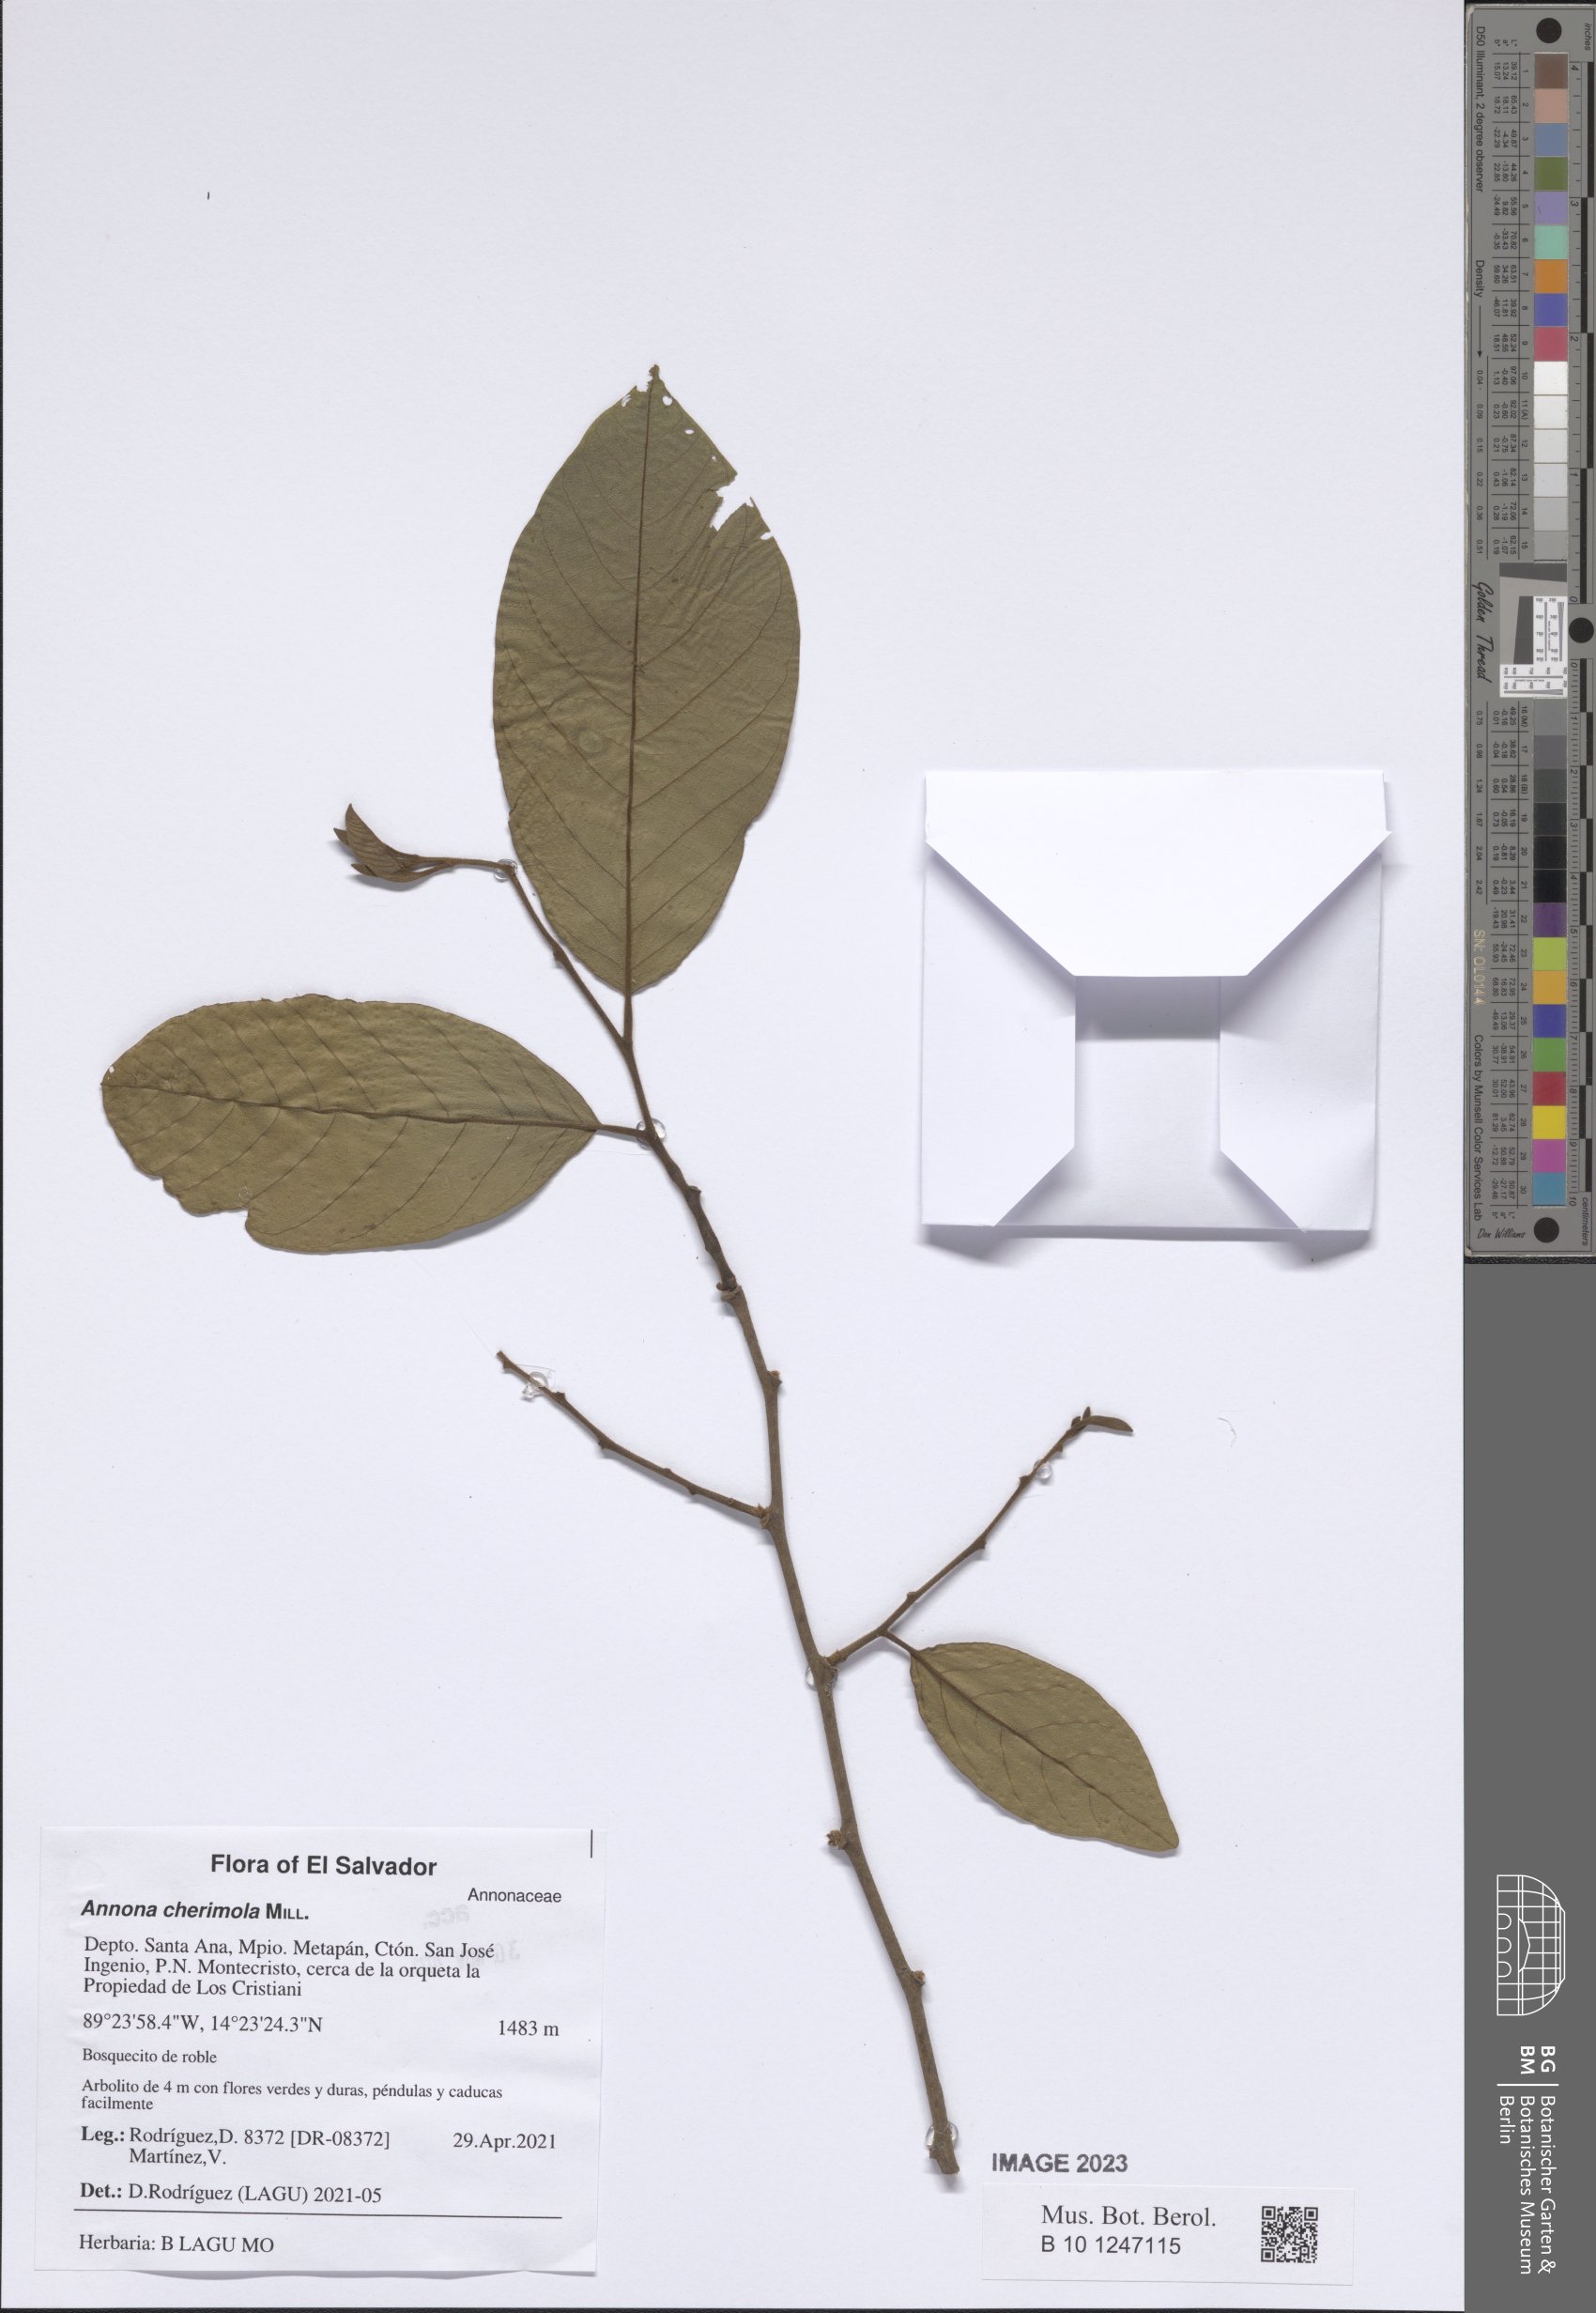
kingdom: Plantae
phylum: Tracheophyta
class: Magnoliopsida
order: Magnoliales
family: Annonaceae
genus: Annona
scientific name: Annona cherimola
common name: Cherimoya
